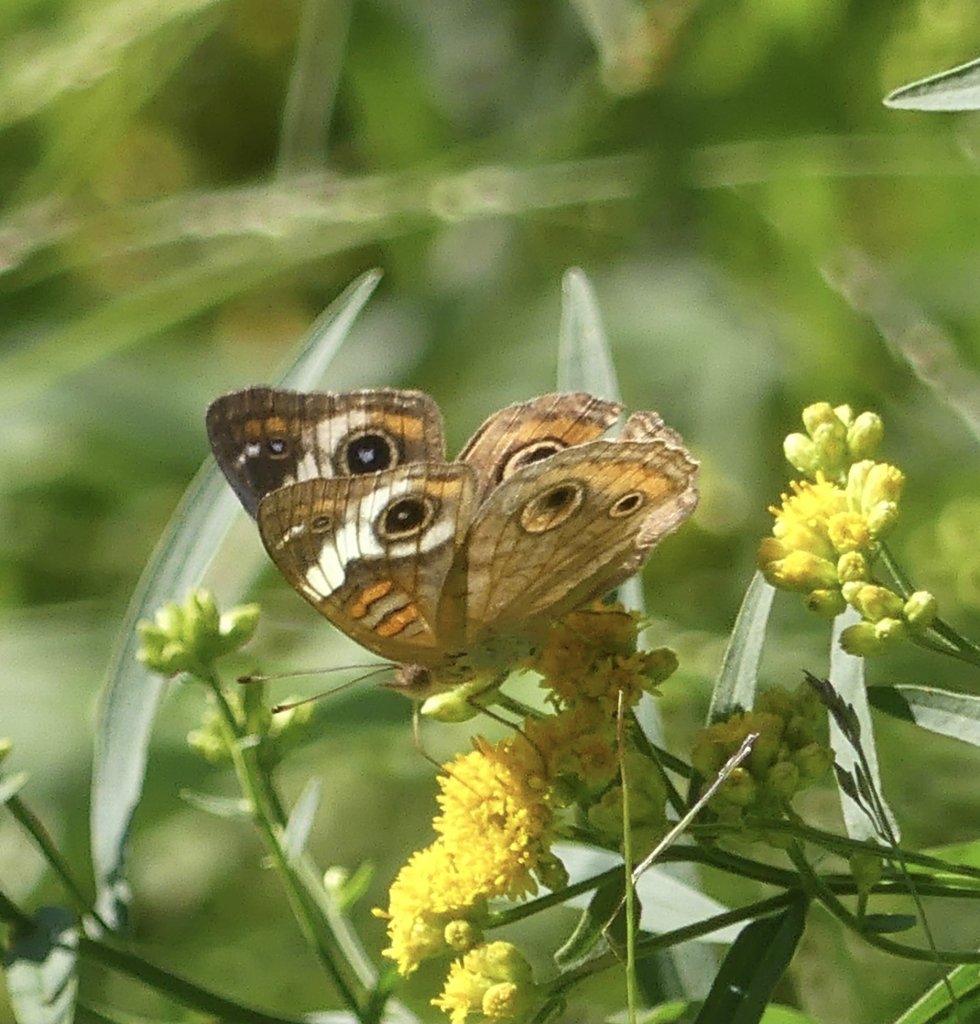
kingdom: Animalia
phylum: Arthropoda
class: Insecta
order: Lepidoptera
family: Nymphalidae
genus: Junonia
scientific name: Junonia coenia
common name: Common Buckeye
